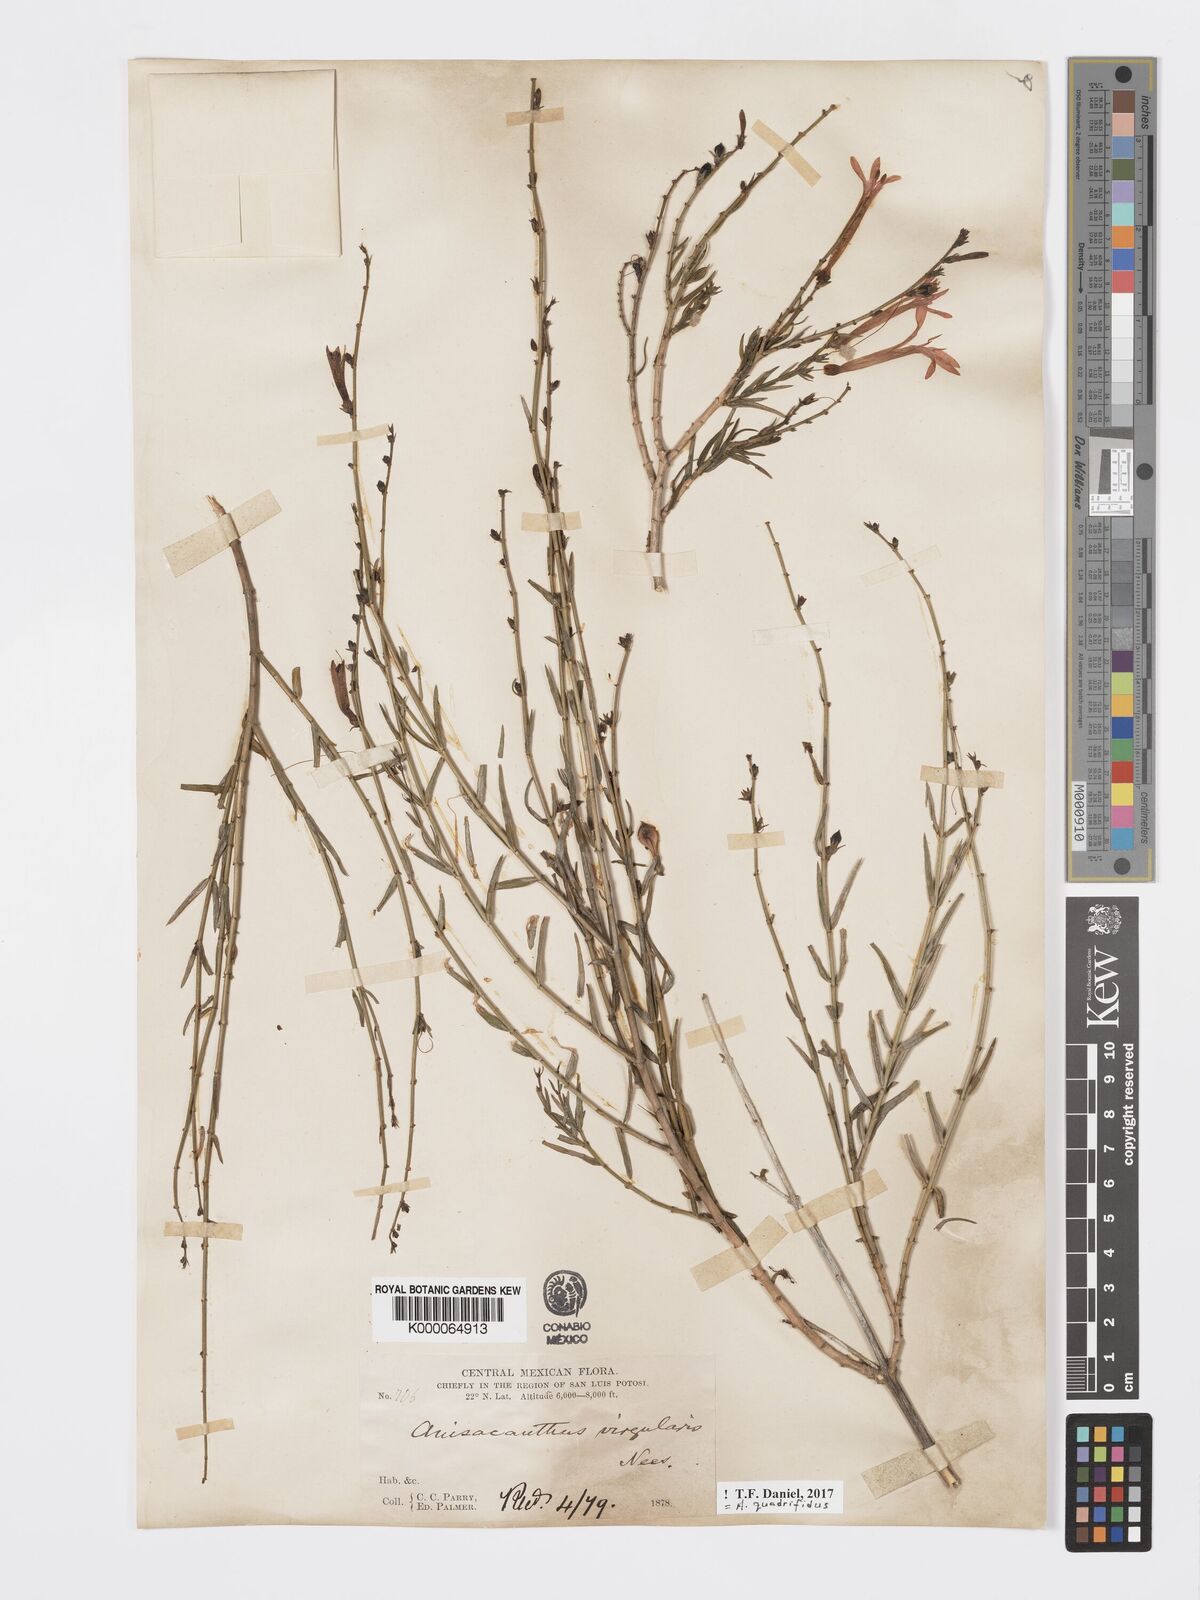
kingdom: Plantae
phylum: Tracheophyta
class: Magnoliopsida
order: Lamiales
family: Acanthaceae
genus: Anisacanthus
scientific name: Anisacanthus quadrifidus
